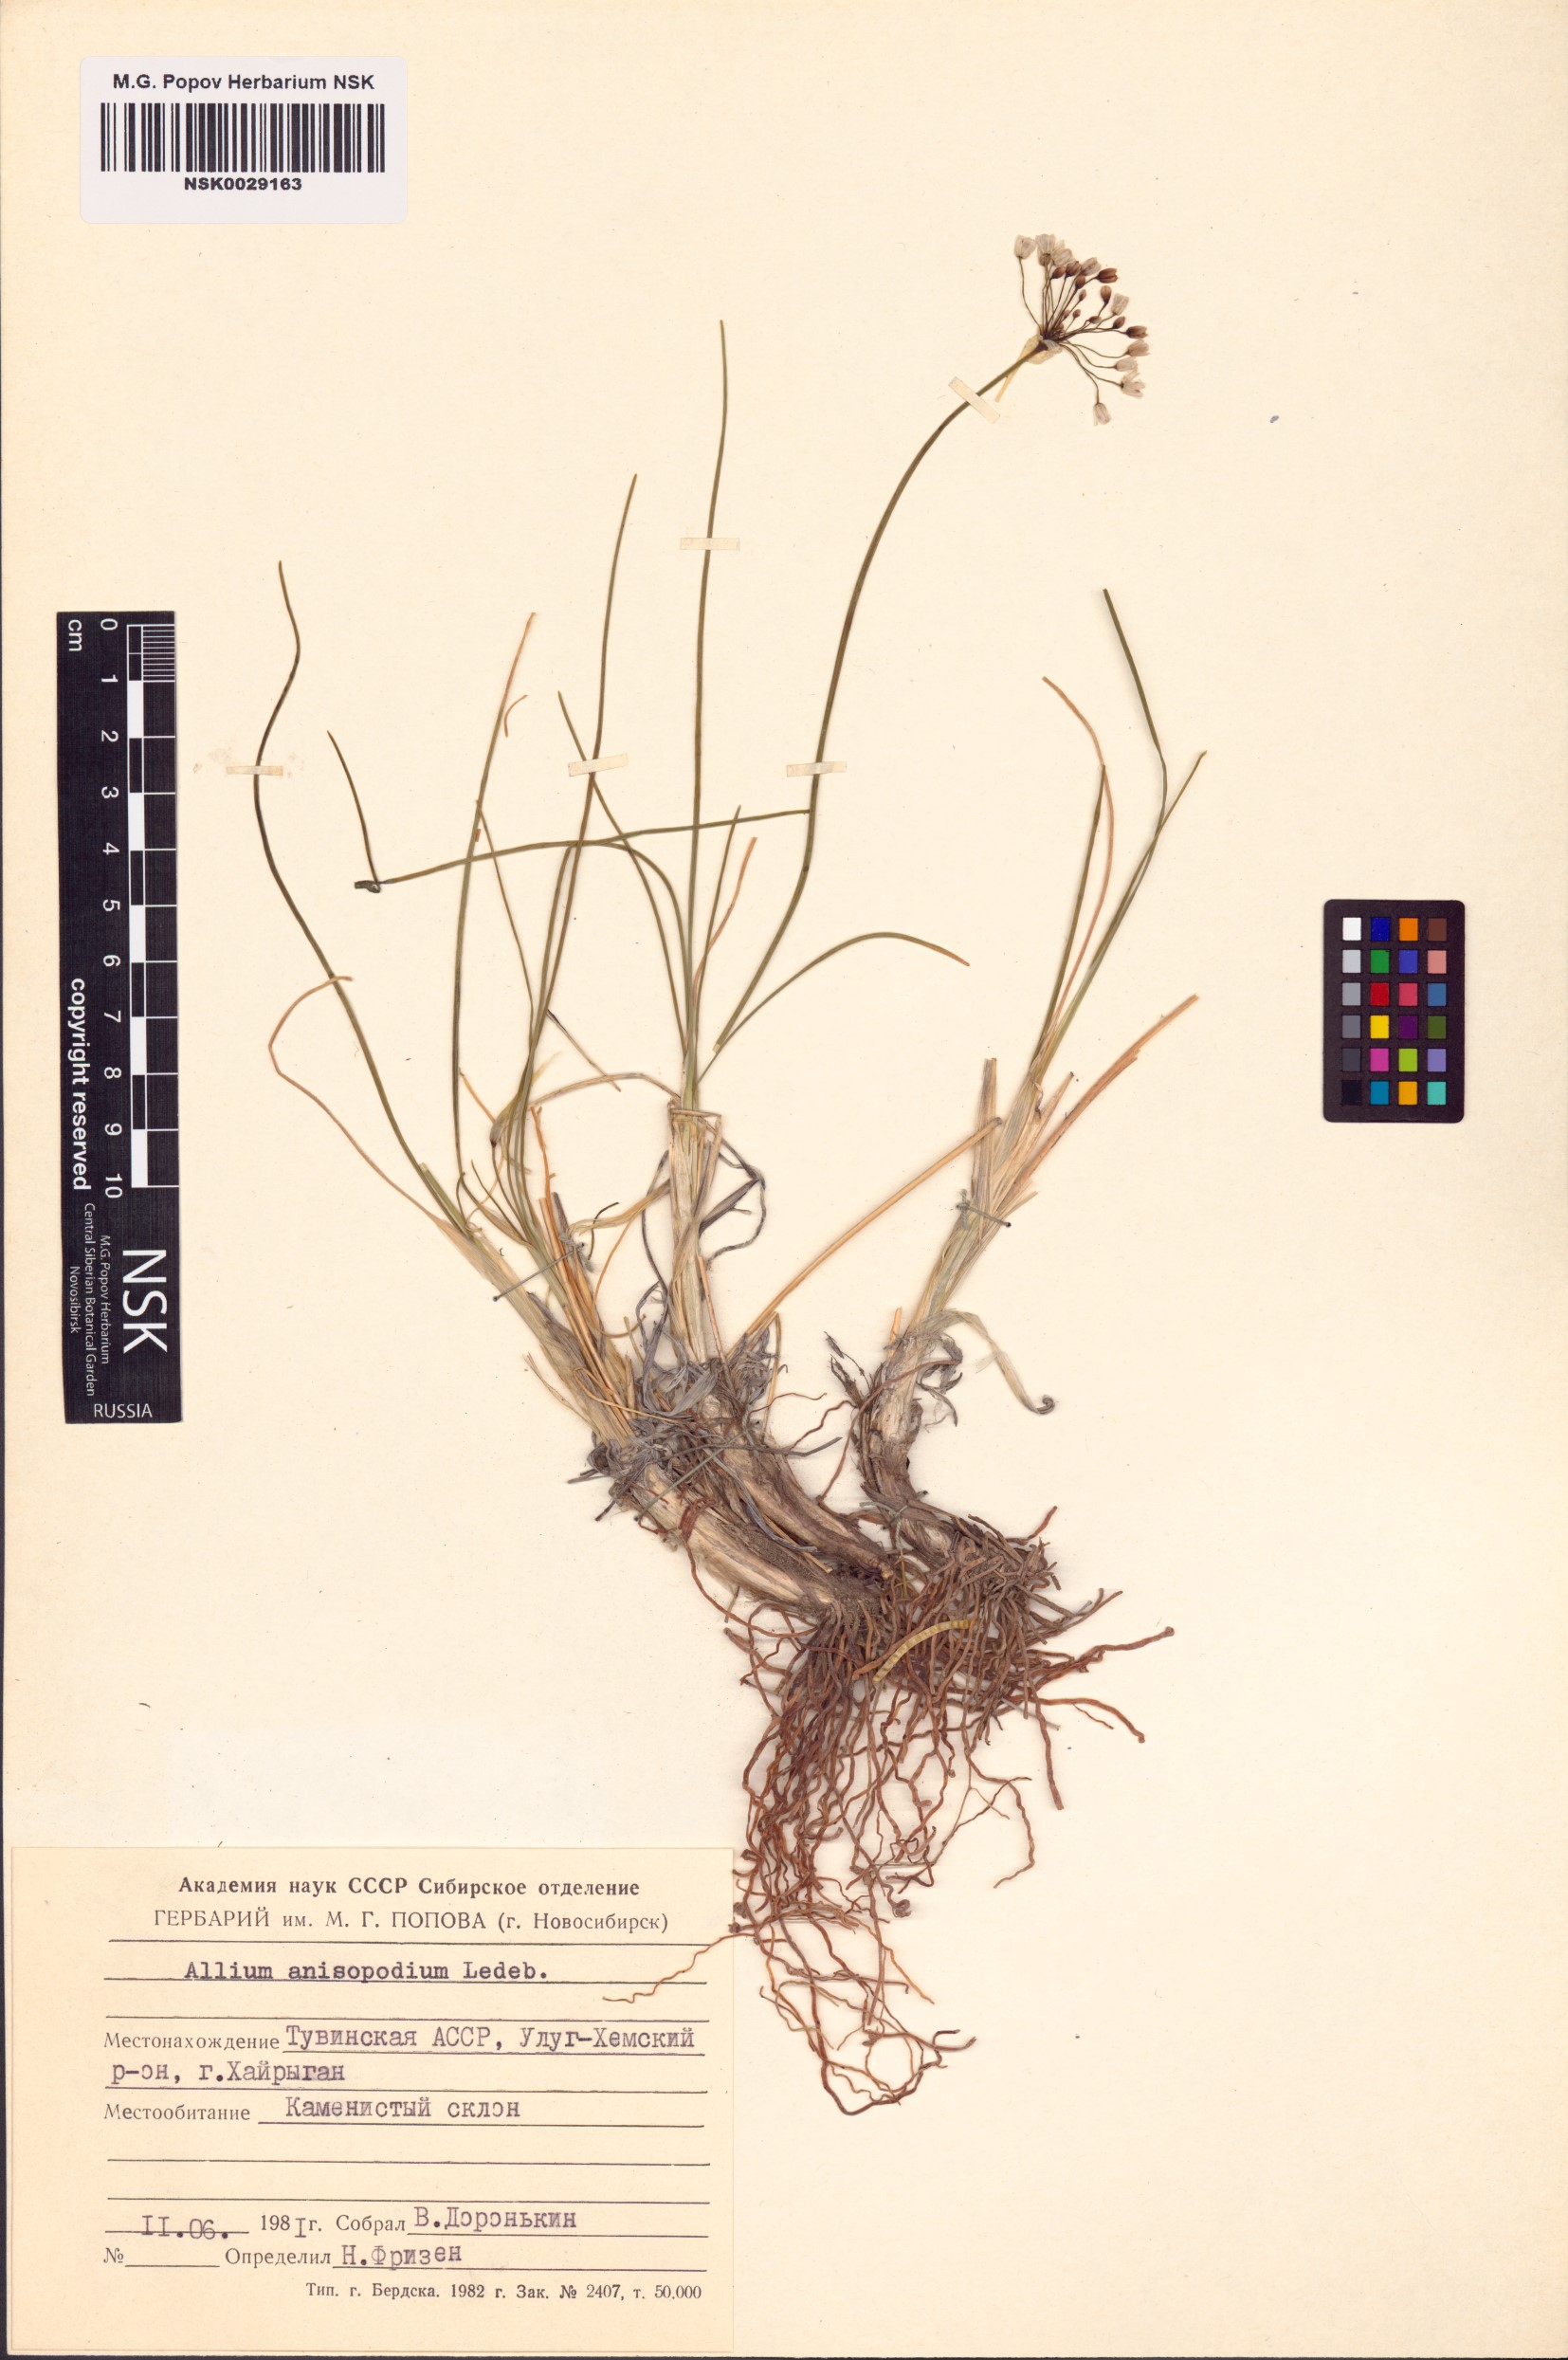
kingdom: Plantae
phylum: Tracheophyta
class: Liliopsida
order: Asparagales
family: Amaryllidaceae
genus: Allium
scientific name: Allium anisopodium
